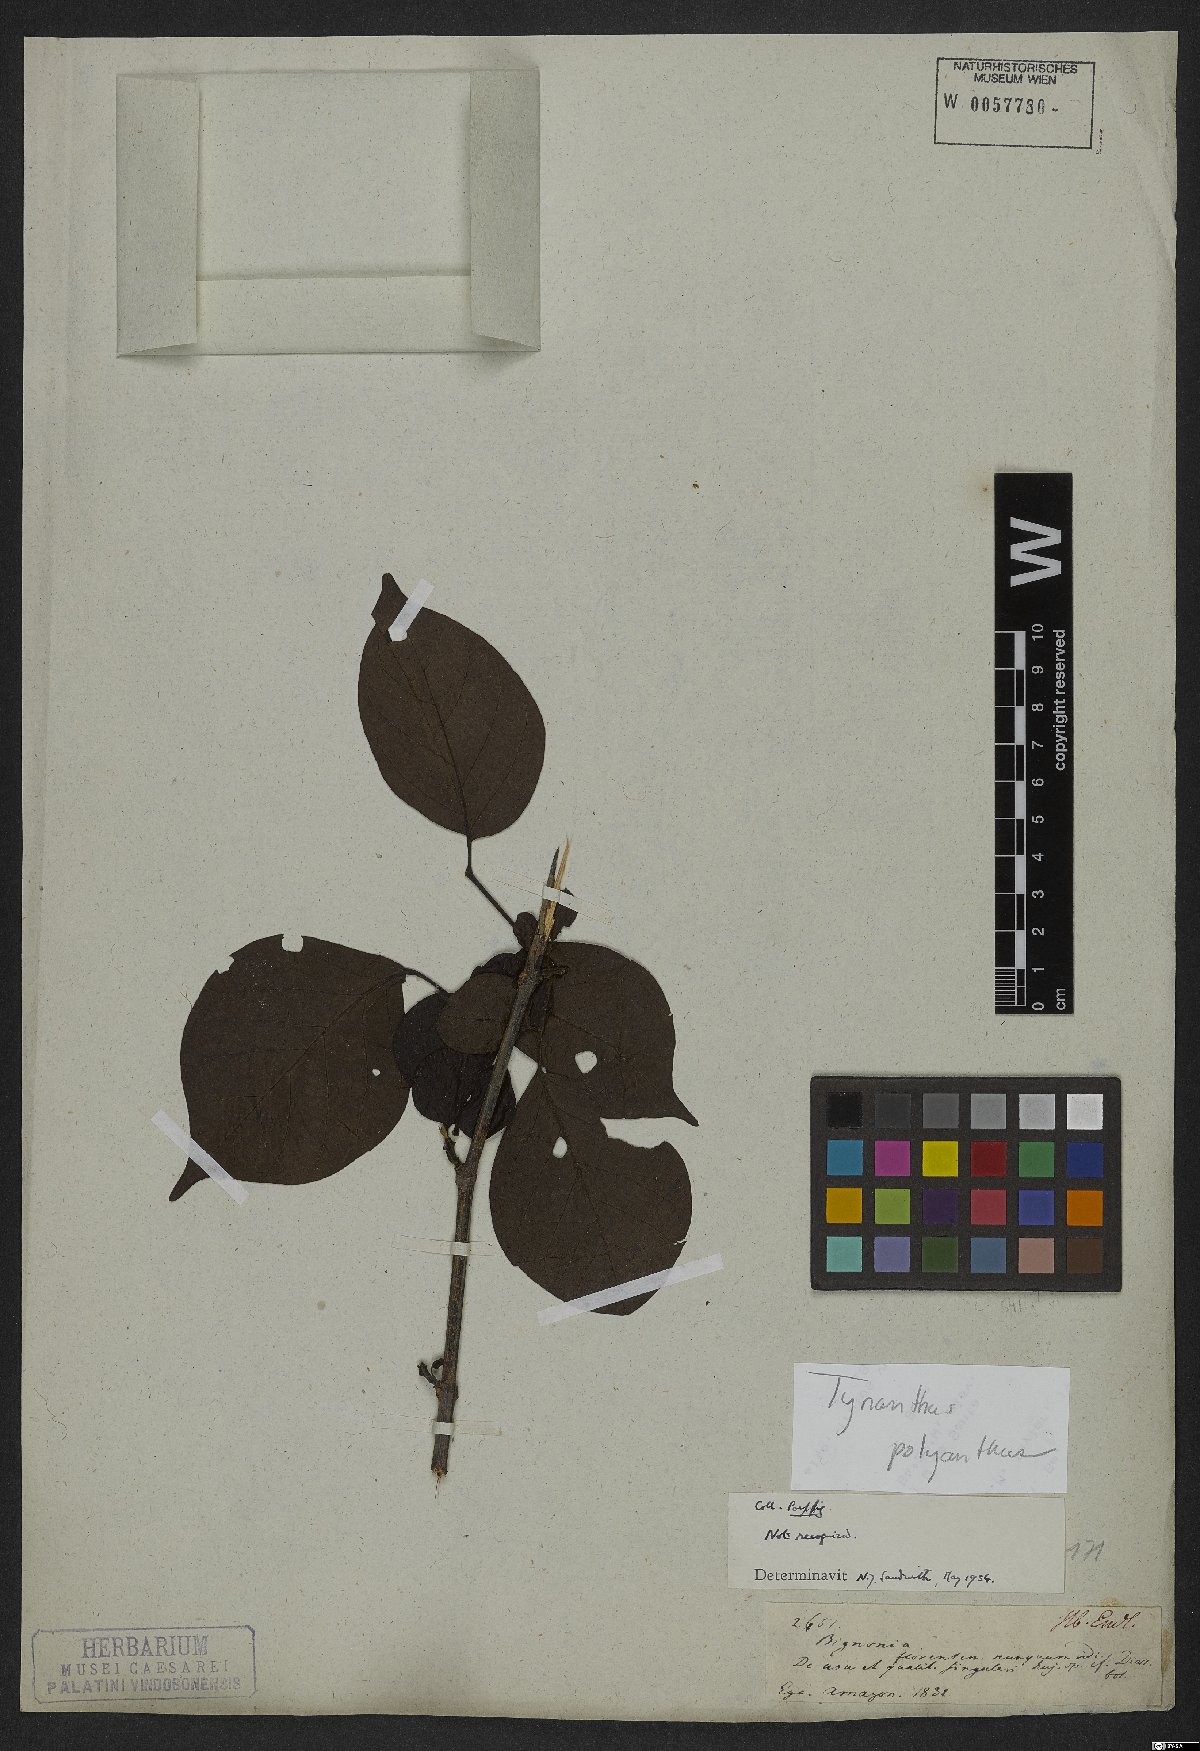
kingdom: Plantae
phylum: Tracheophyta
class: Magnoliopsida
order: Lamiales
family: Bignoniaceae
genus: Tynanthus
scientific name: Tynanthus polyanthus
